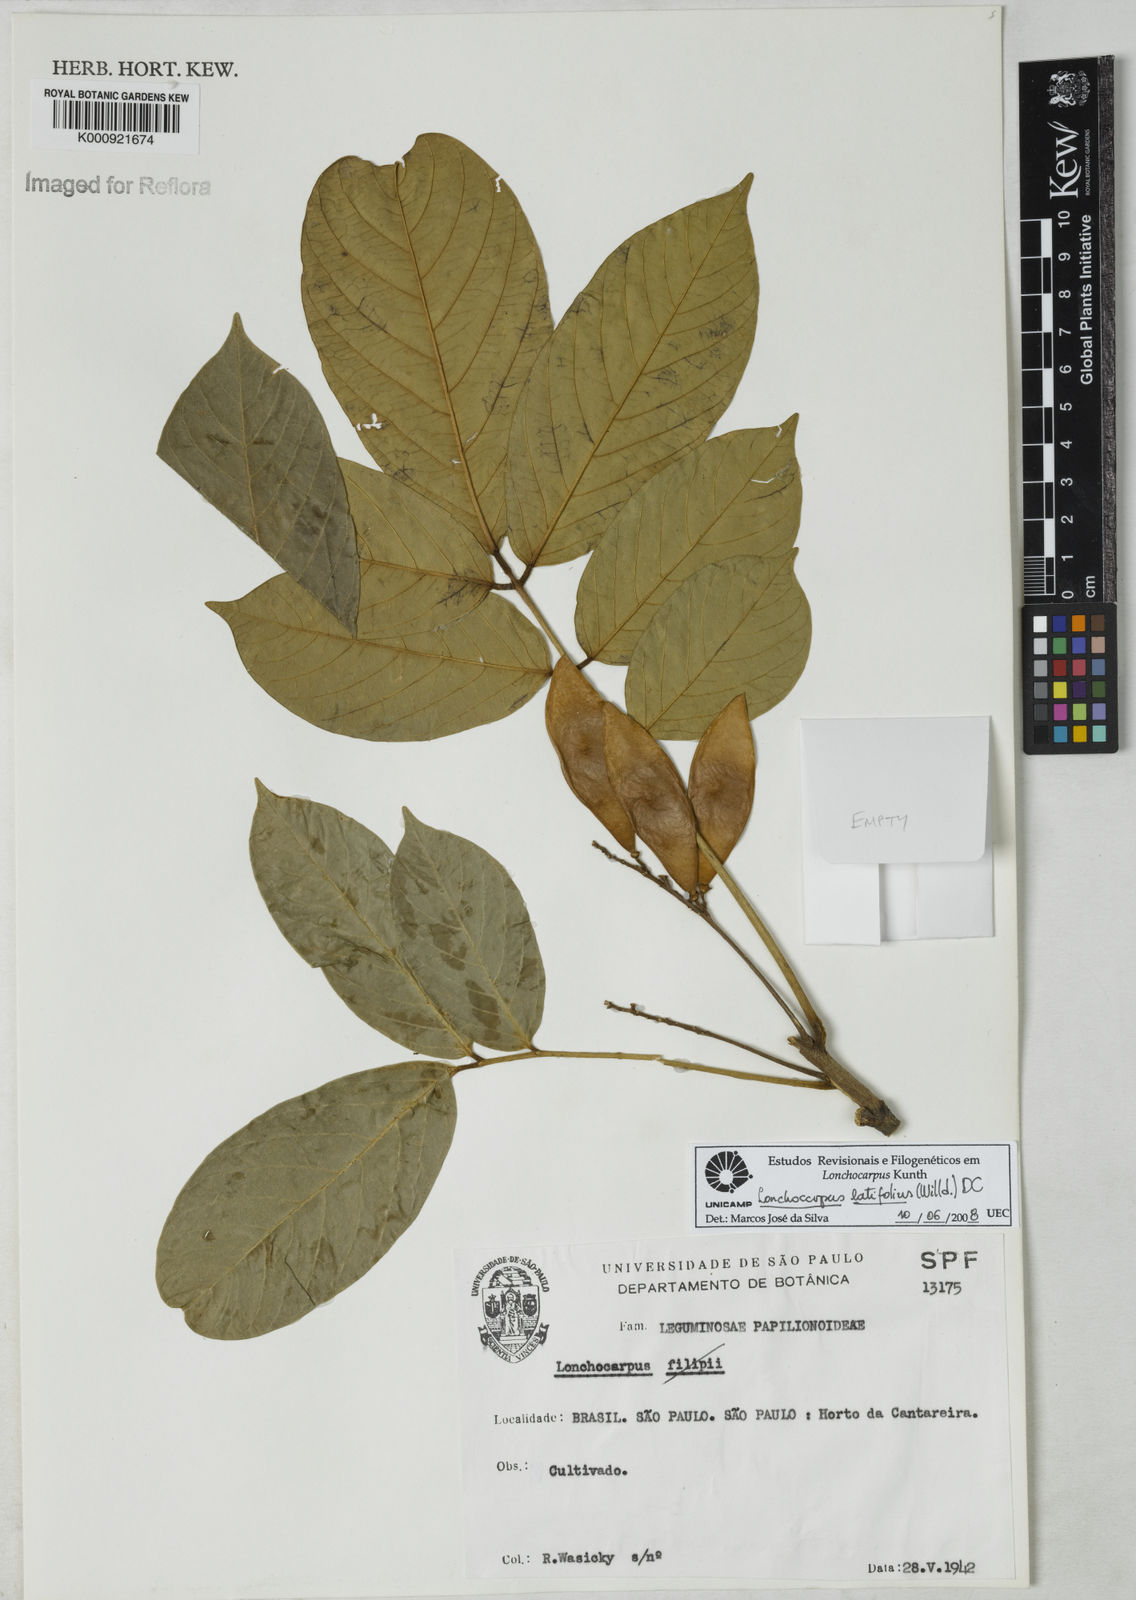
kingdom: Plantae
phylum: Tracheophyta
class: Magnoliopsida
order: Fabales
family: Fabaceae
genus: Lonchocarpus
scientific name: Lonchocarpus
